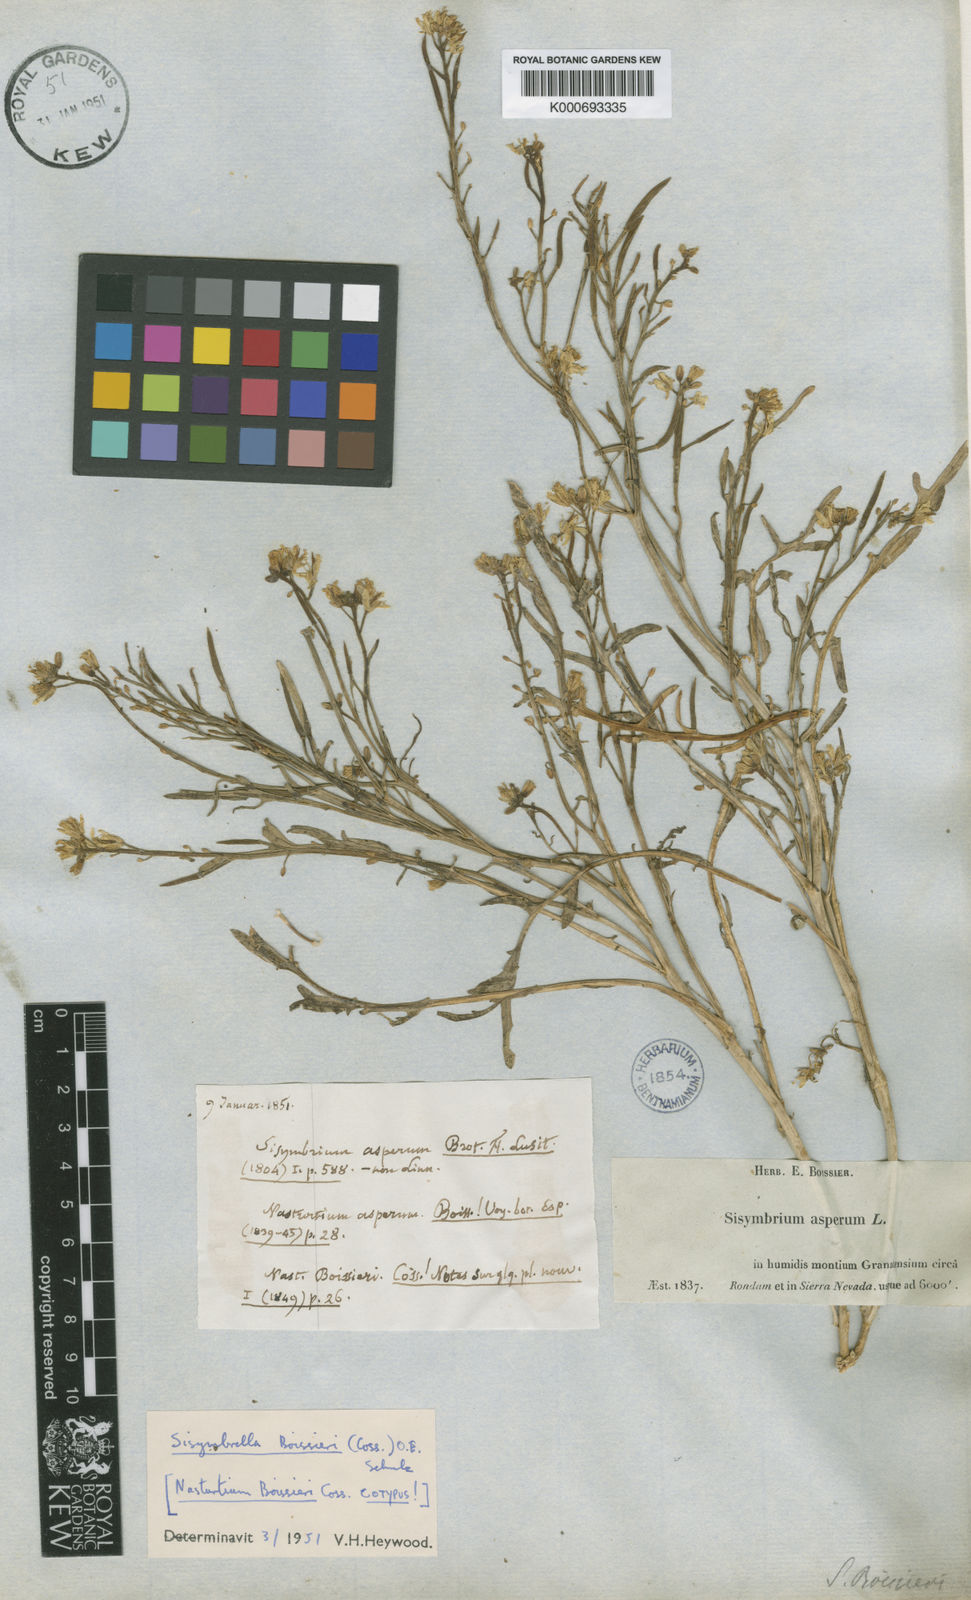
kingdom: Plantae
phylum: Tracheophyta
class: Magnoliopsida
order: Brassicales
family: Brassicaceae
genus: Sisymbrella
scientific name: Sisymbrella aspera
